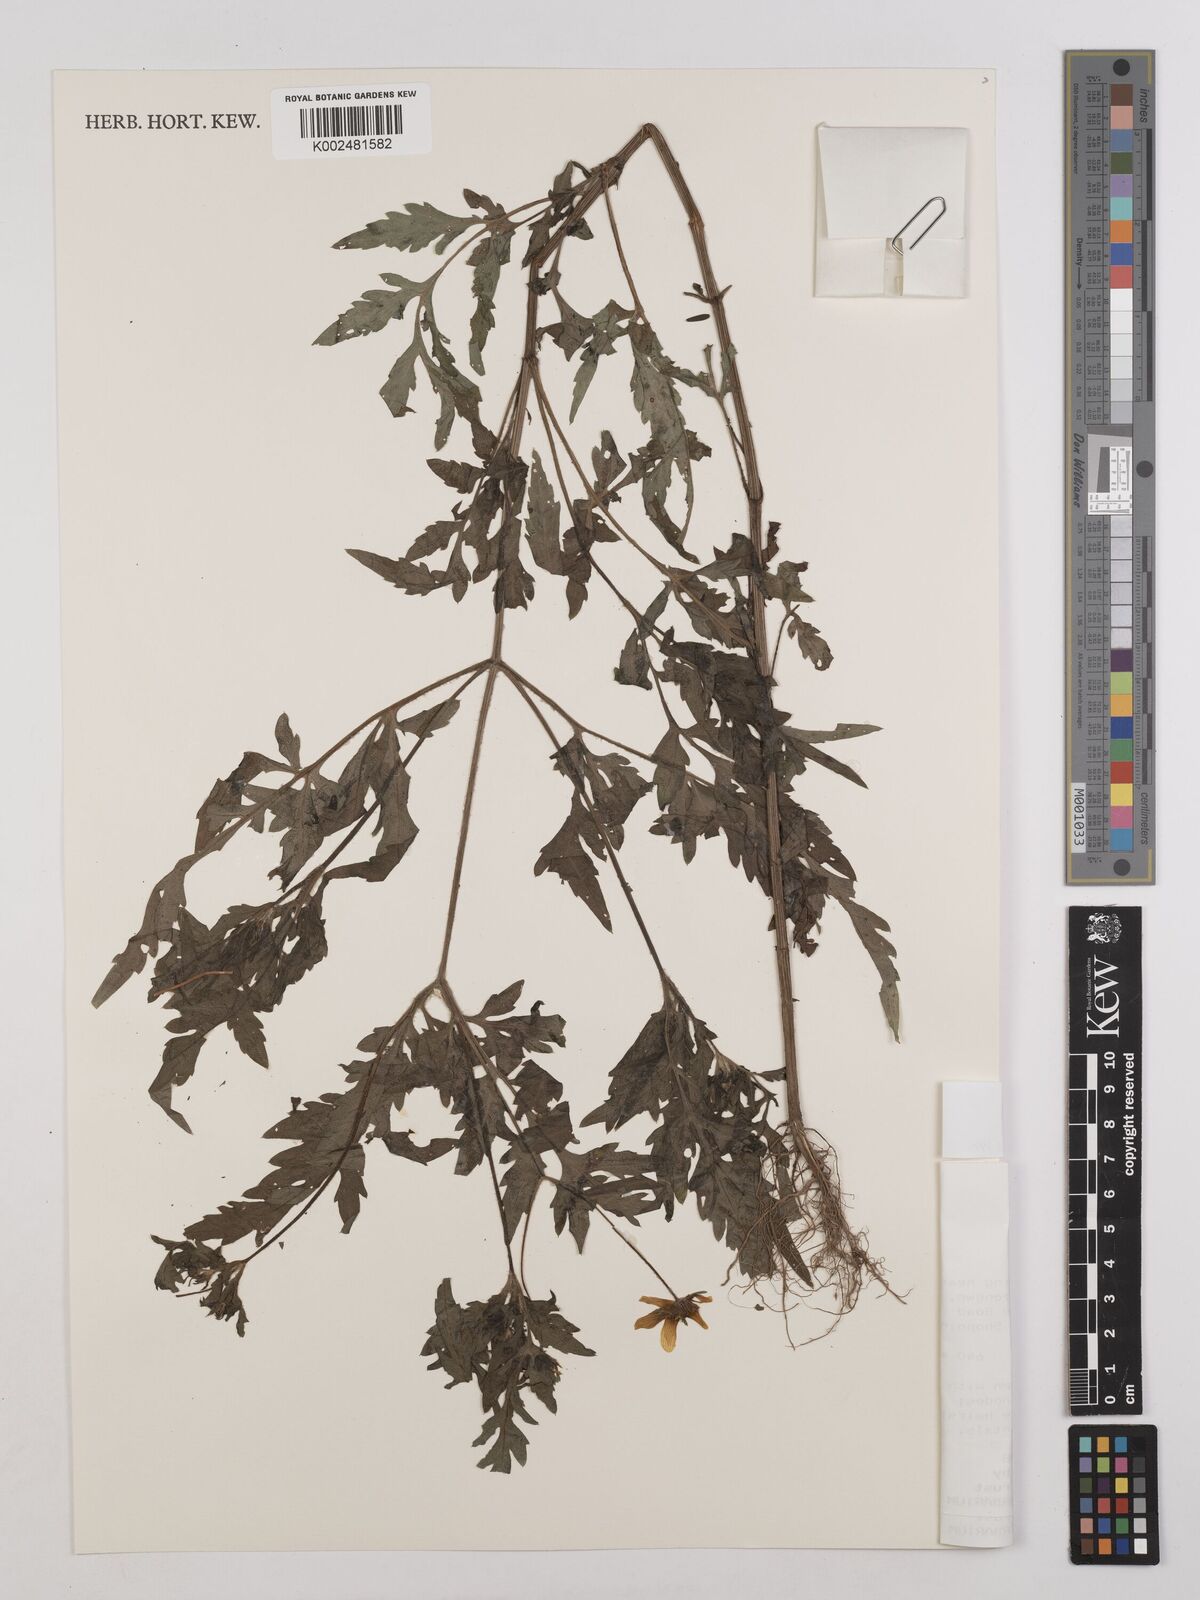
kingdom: Plantae
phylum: Tracheophyta
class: Magnoliopsida
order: Asterales
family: Asteraceae
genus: Bidens
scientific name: Bidens schimperi
